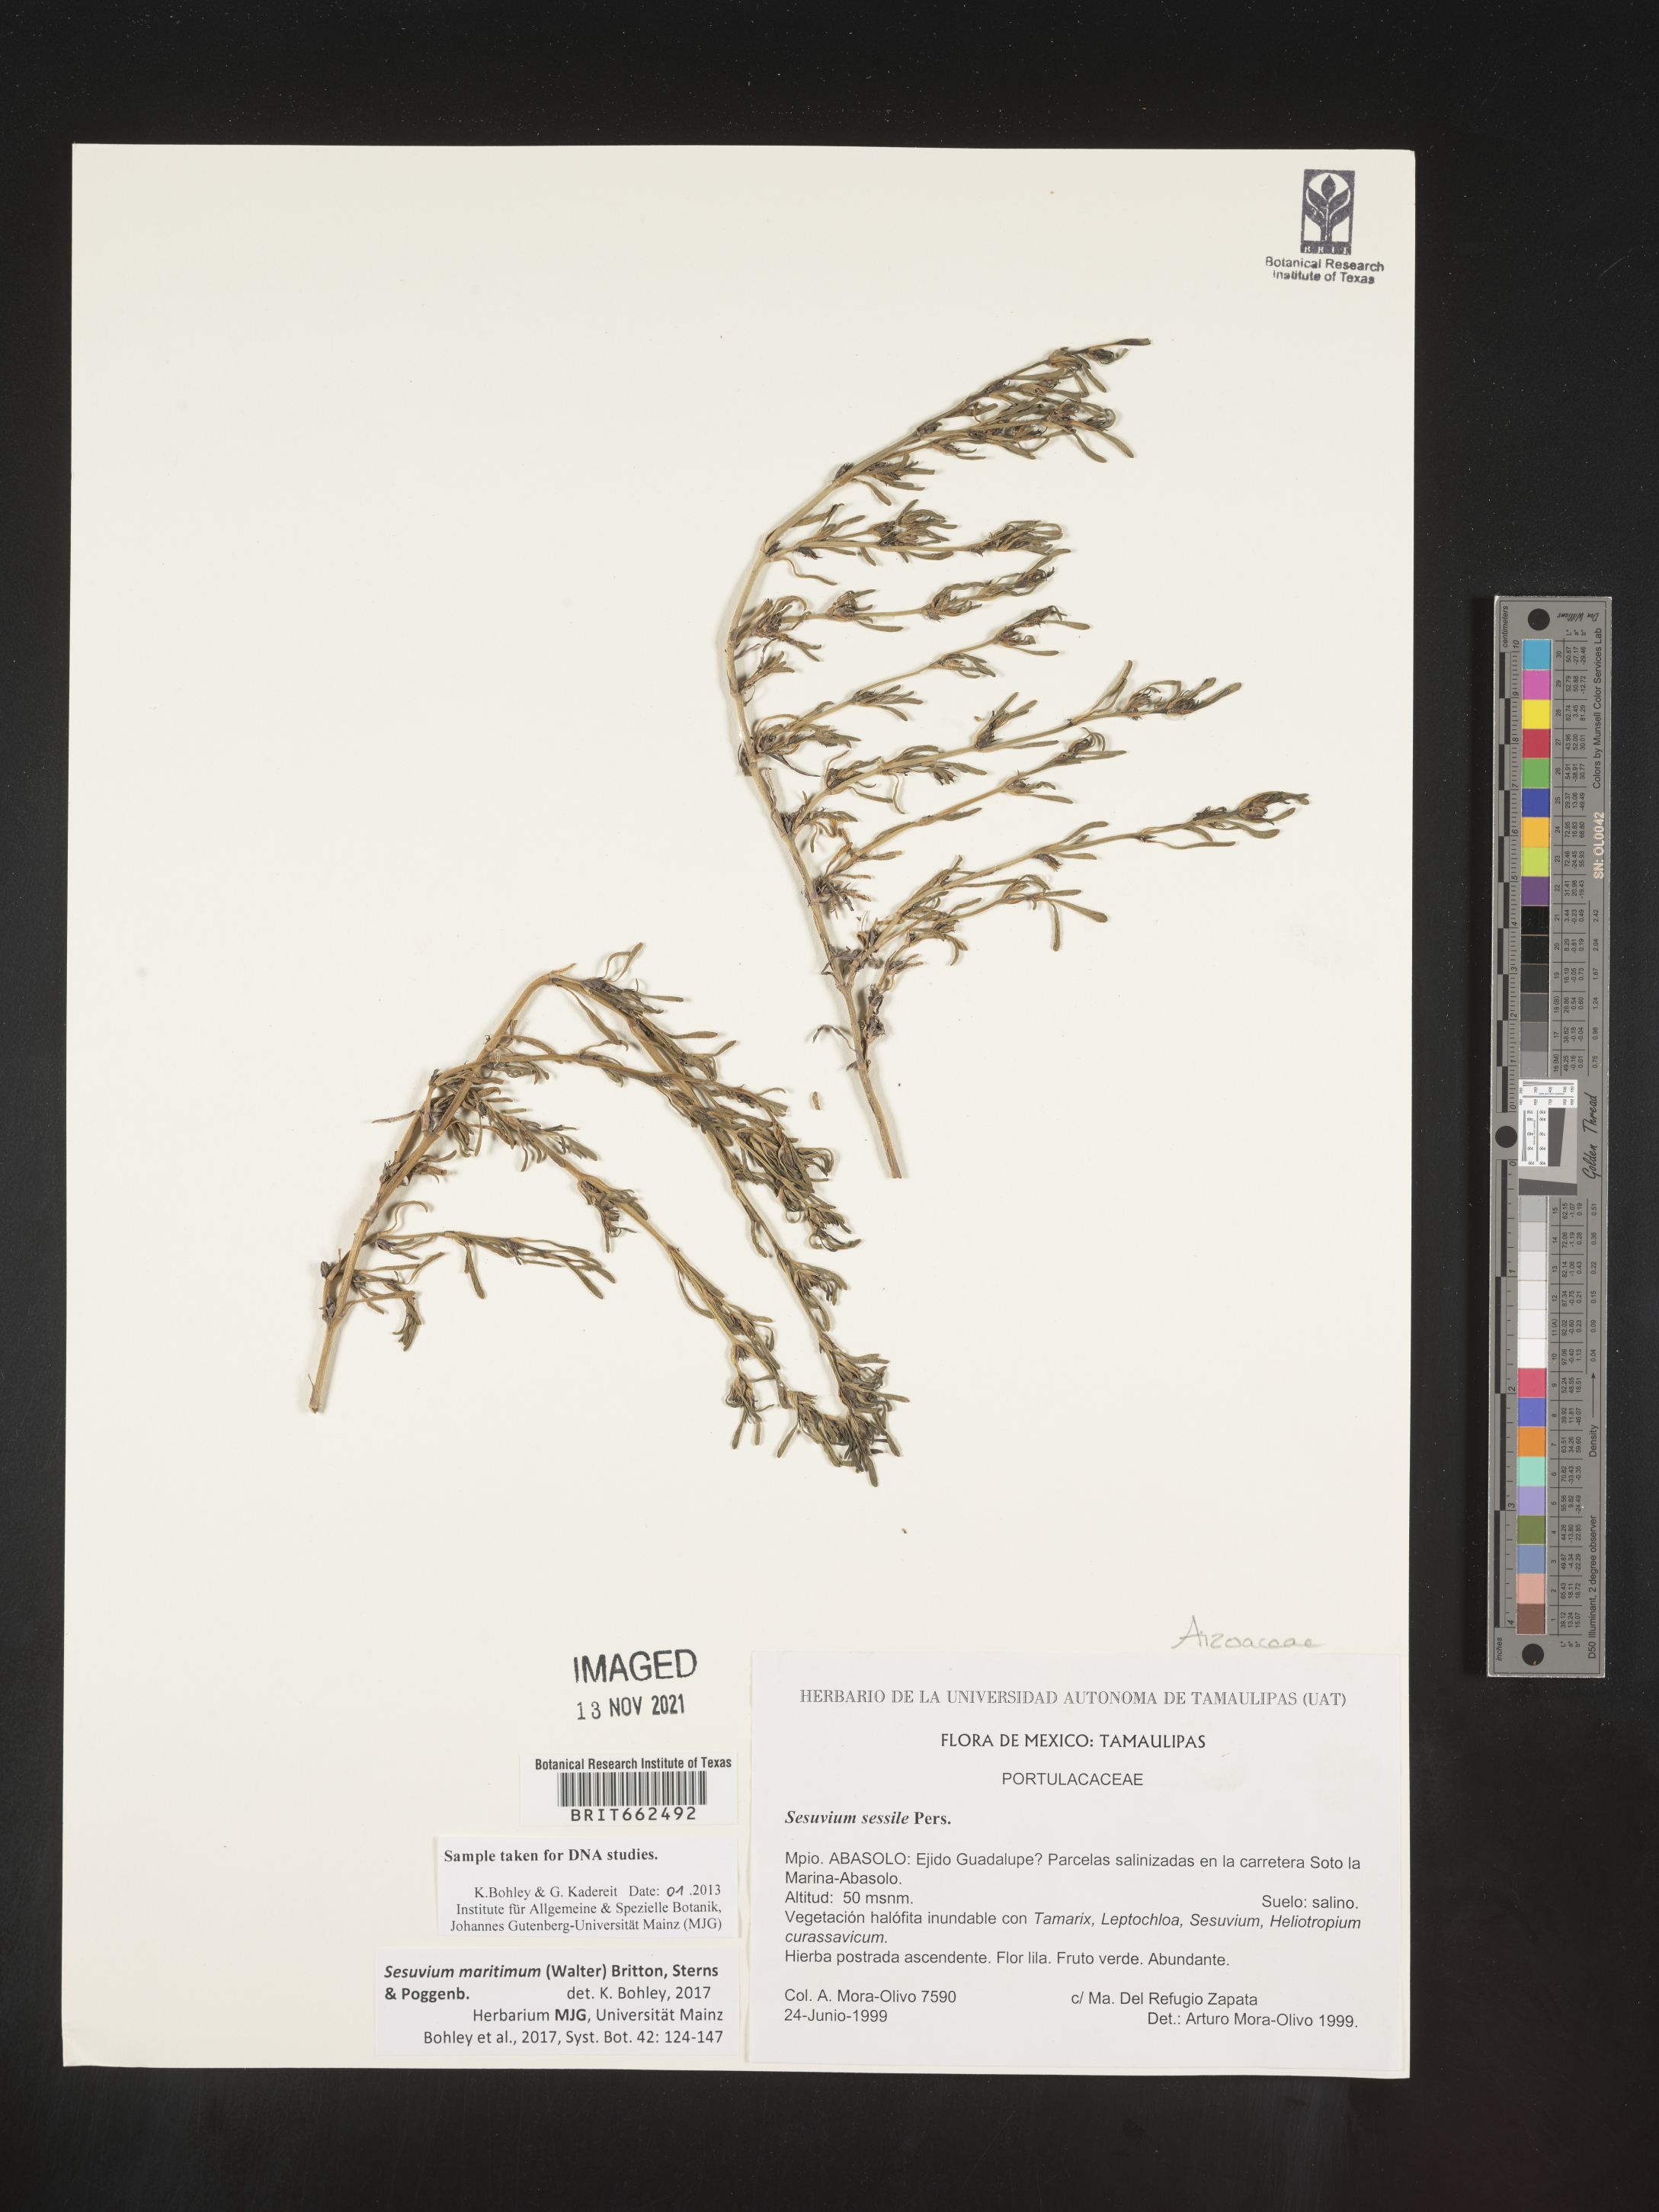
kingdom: Plantae
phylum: Tracheophyta
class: Magnoliopsida
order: Caryophyllales
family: Aizoaceae
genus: Sesuvium
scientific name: Sesuvium
